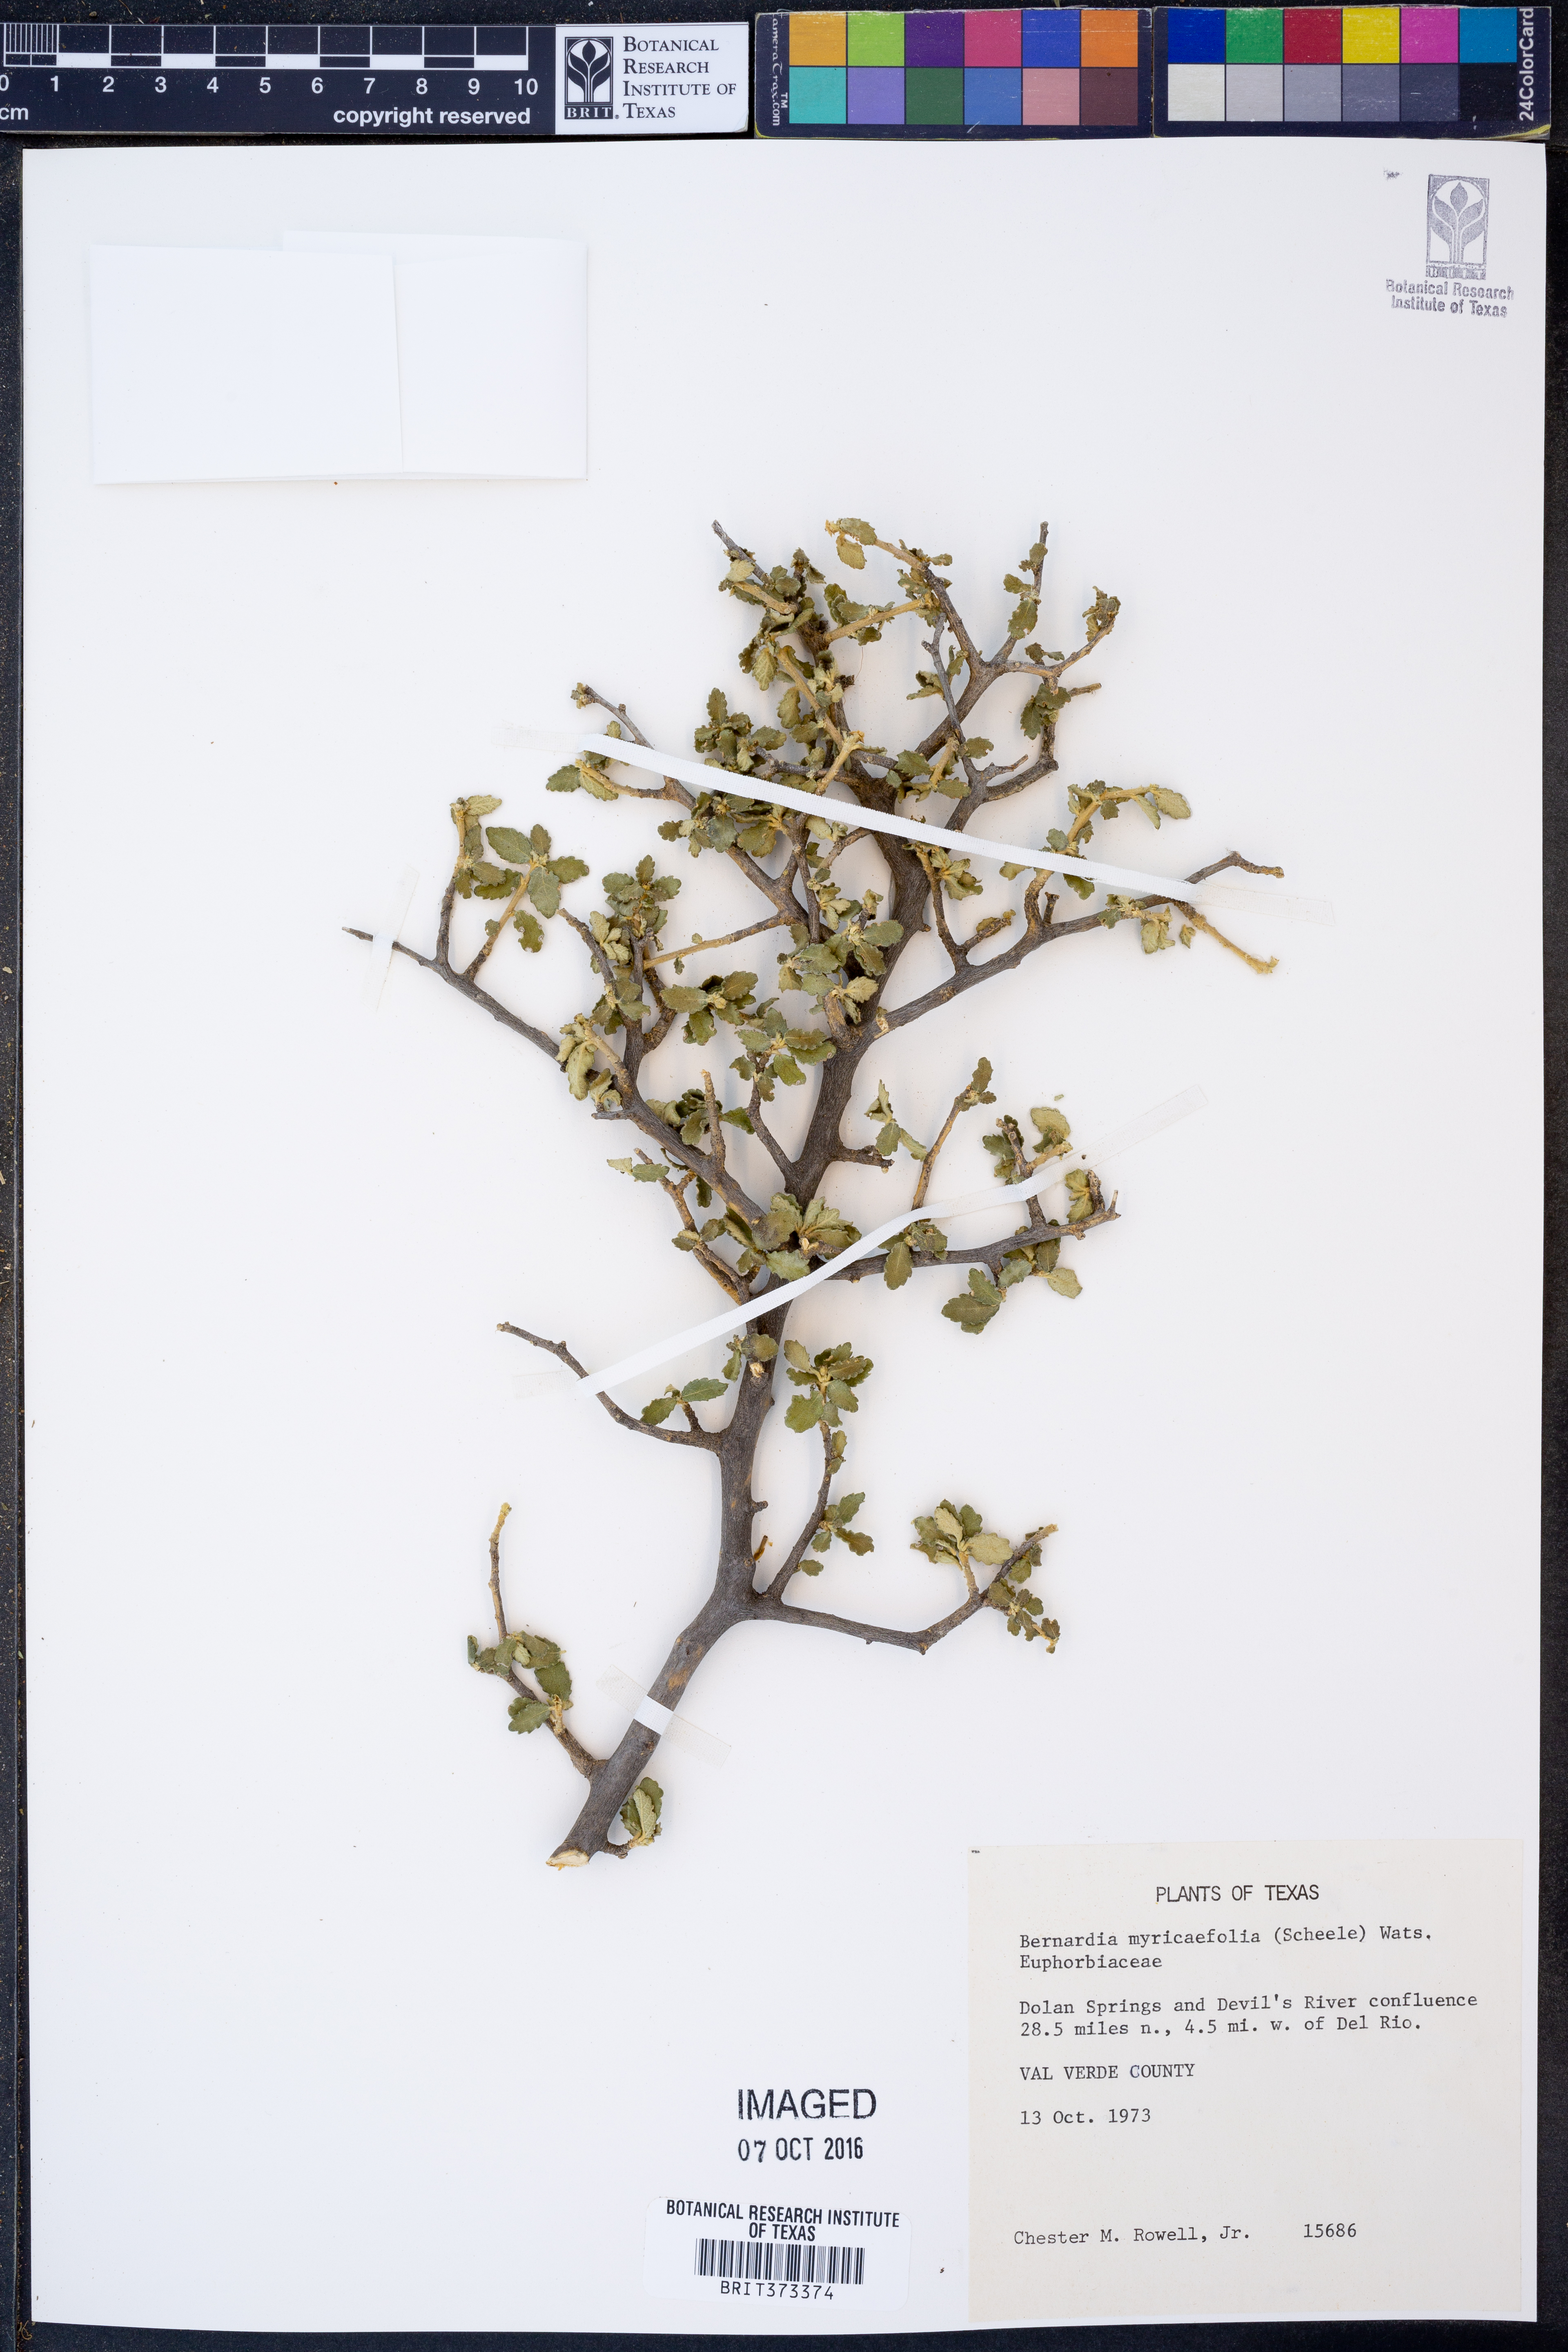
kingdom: Plantae
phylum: Tracheophyta
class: Magnoliopsida
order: Malpighiales
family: Euphorbiaceae
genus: Bernardia
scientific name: Bernardia myricifolia
